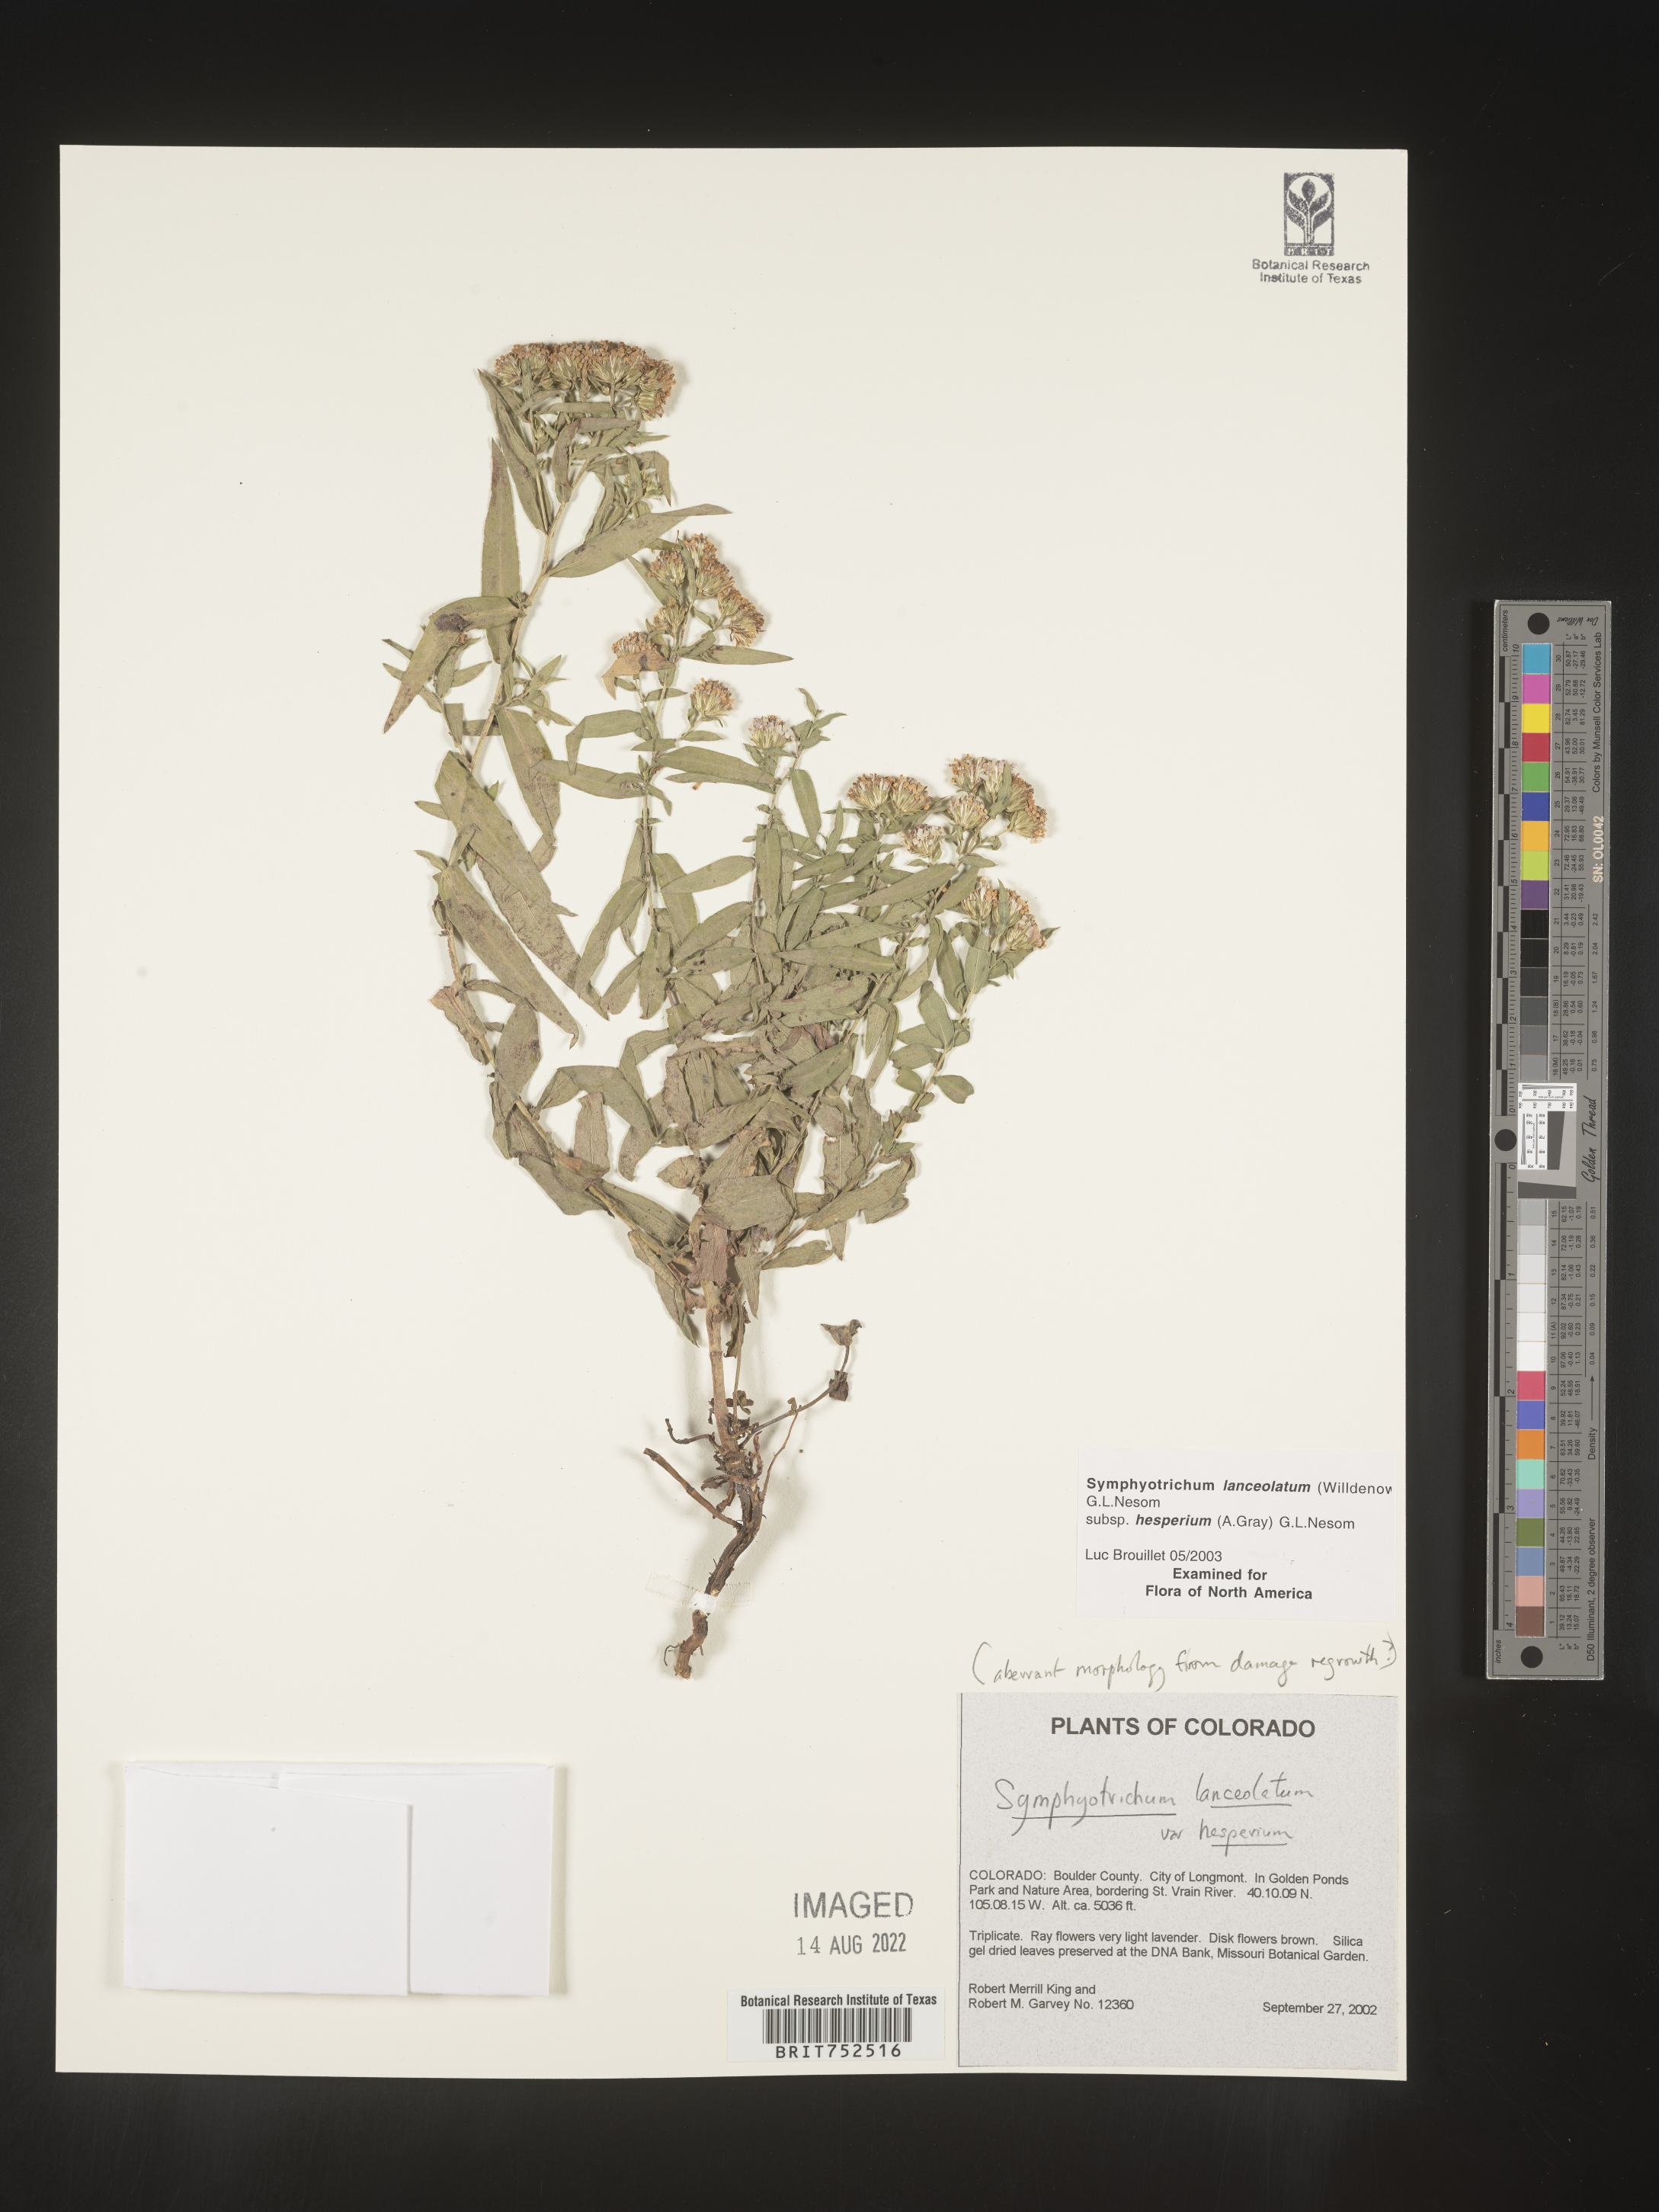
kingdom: Plantae
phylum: Tracheophyta
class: Magnoliopsida
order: Asterales
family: Asteraceae
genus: Symphyotrichum
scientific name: Symphyotrichum lanceolatum
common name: Panicled aster
